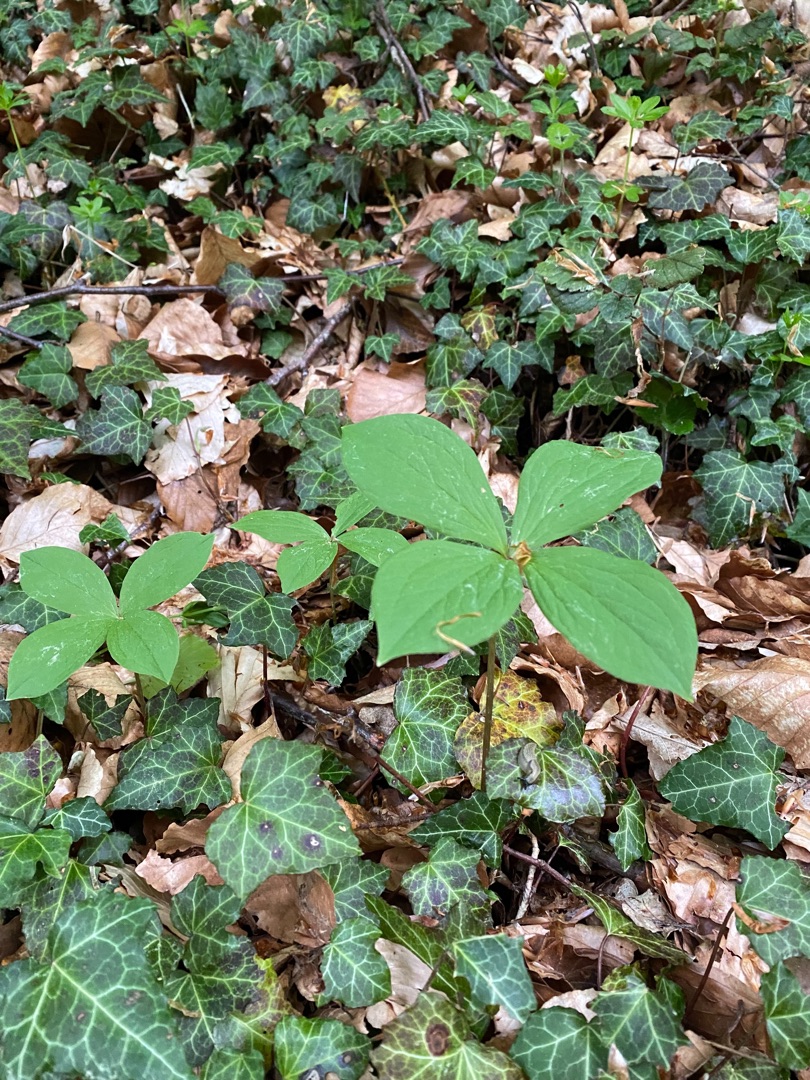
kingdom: Plantae
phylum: Tracheophyta
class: Liliopsida
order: Liliales
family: Melanthiaceae
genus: Paris
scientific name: Paris quadrifolia
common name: Firblad
